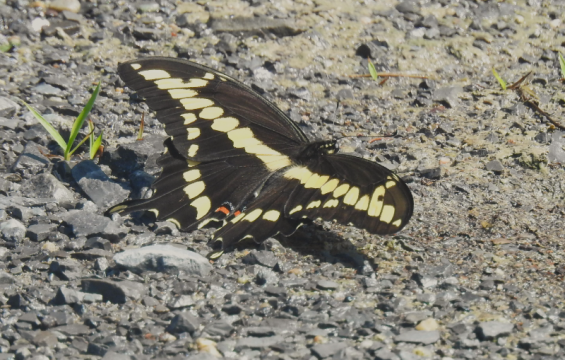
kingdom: Animalia
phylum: Arthropoda
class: Insecta
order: Lepidoptera
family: Papilionidae
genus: Papilio
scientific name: Papilio cresphontes
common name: Eastern Giant Swallowtail
